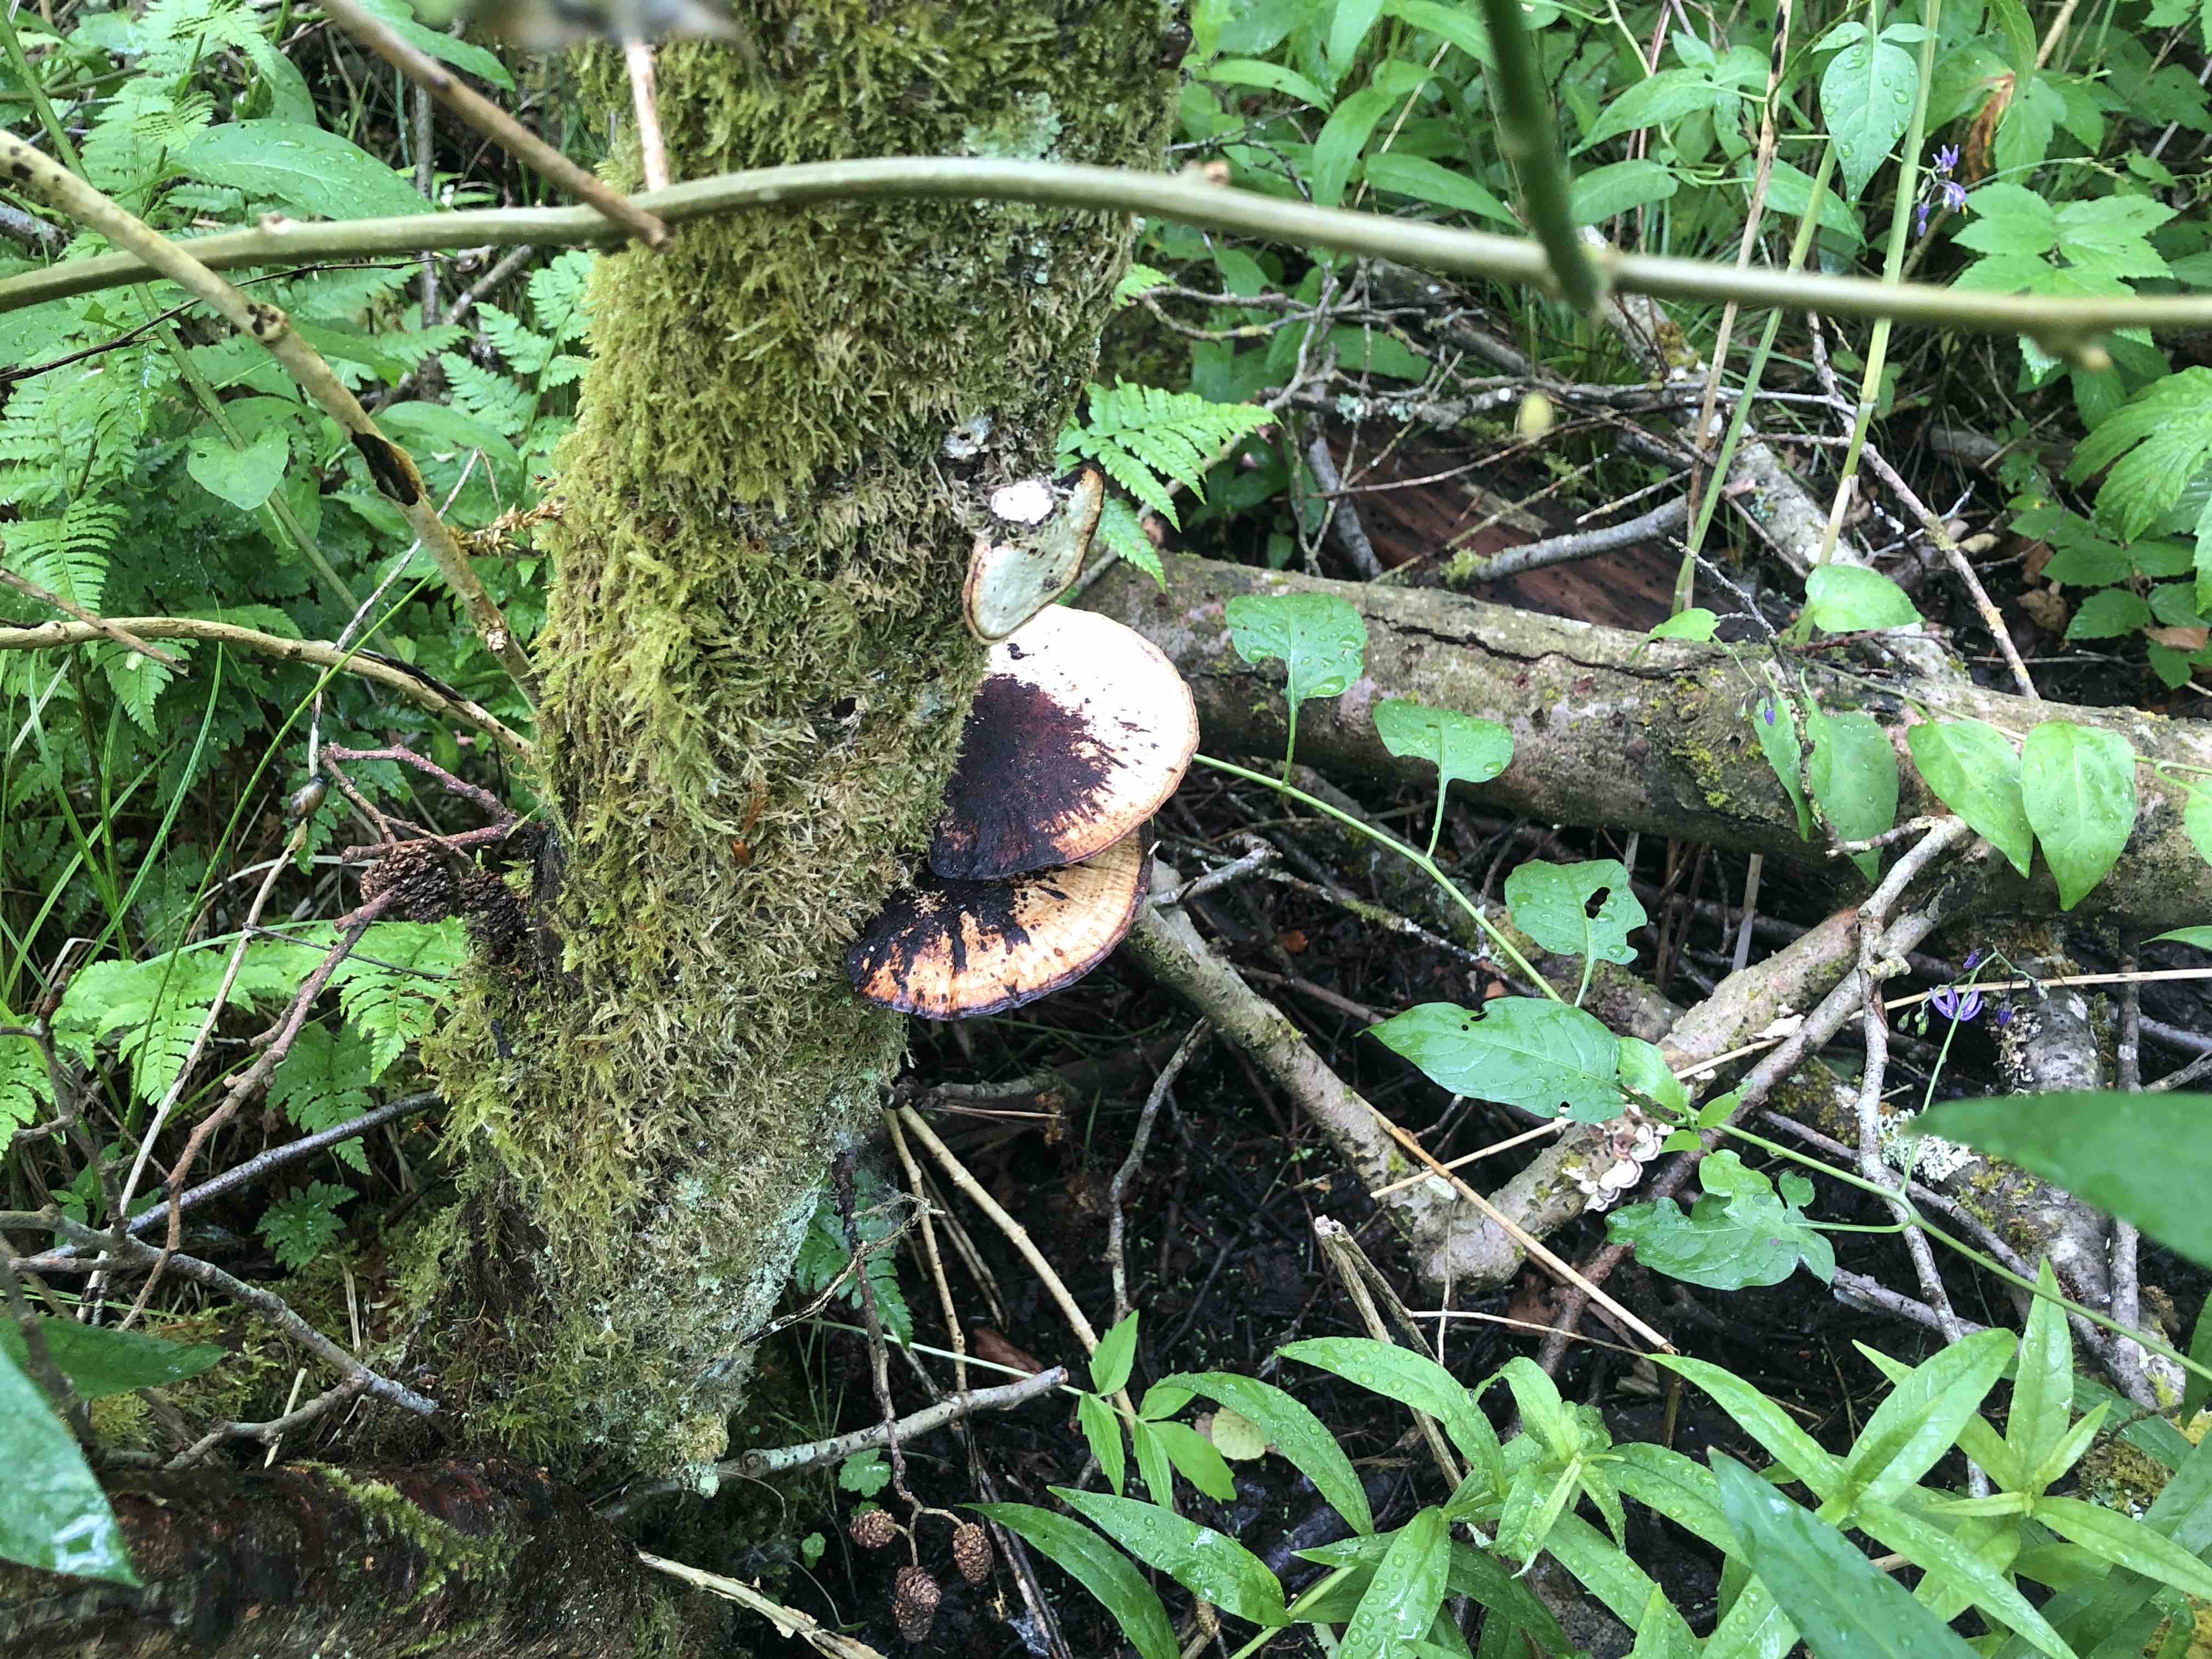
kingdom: Fungi
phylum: Basidiomycota
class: Agaricomycetes
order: Polyporales
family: Polyporaceae
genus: Daedaleopsis
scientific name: Daedaleopsis confragosa
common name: rødmende læderporesvamp
